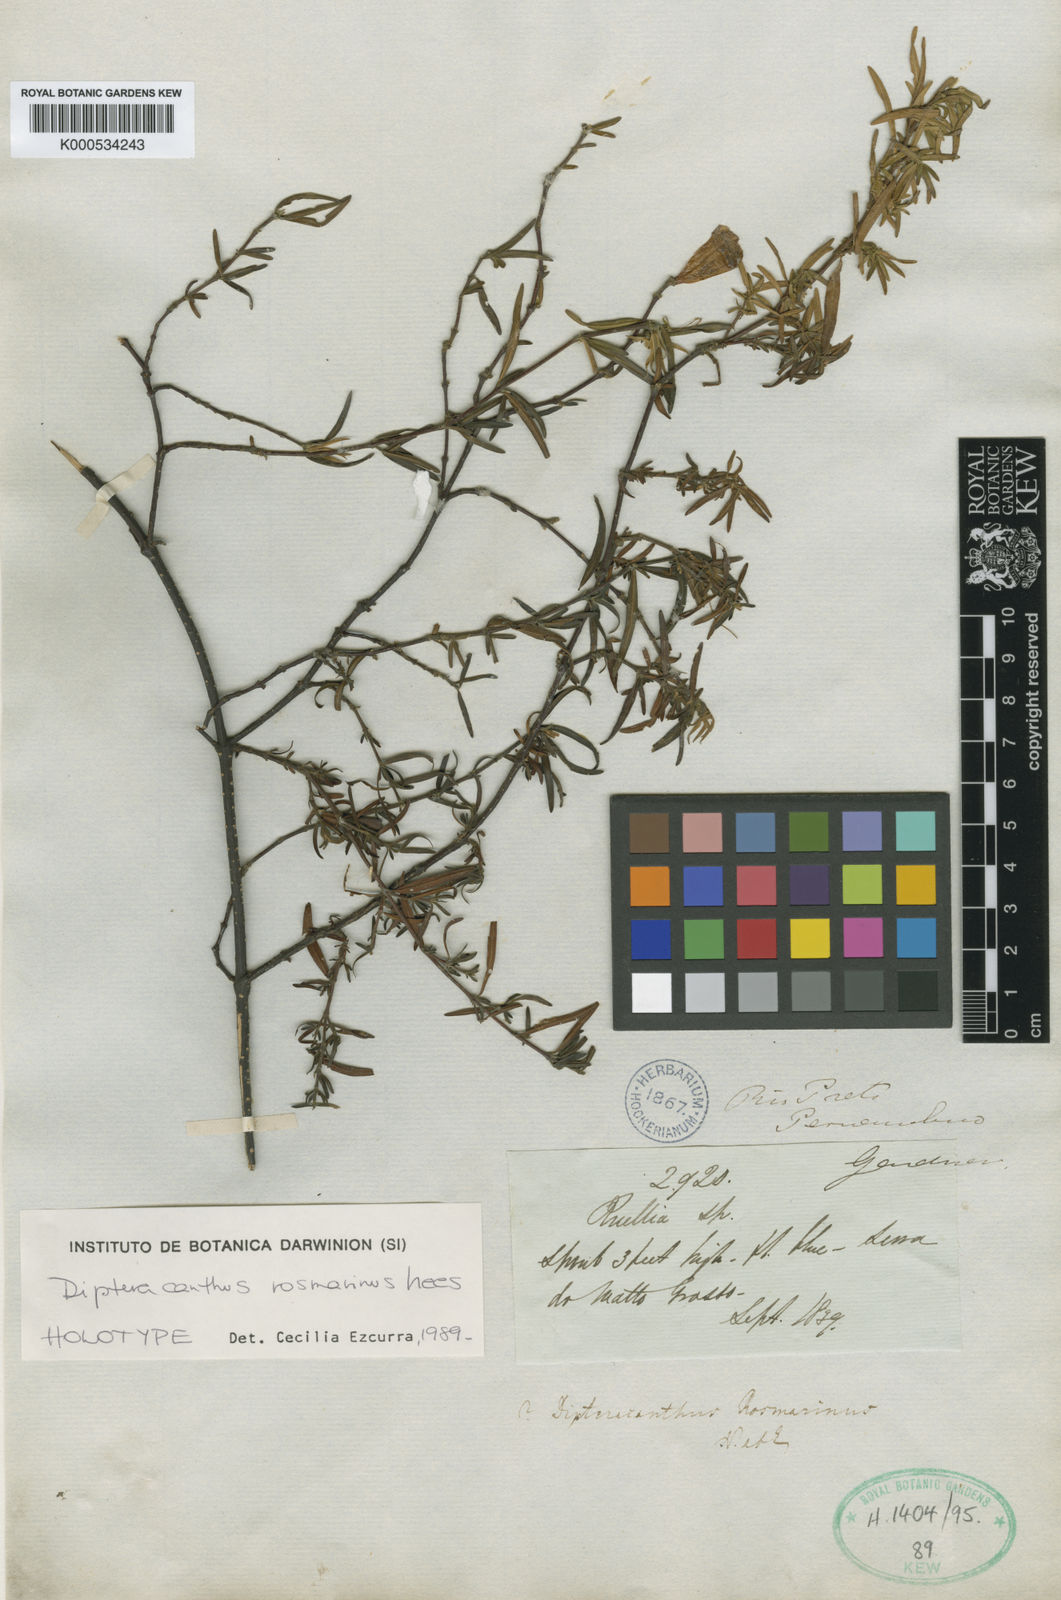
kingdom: Plantae
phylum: Tracheophyta
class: Magnoliopsida
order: Lamiales
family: Acanthaceae
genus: Ruellia
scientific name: Ruellia
